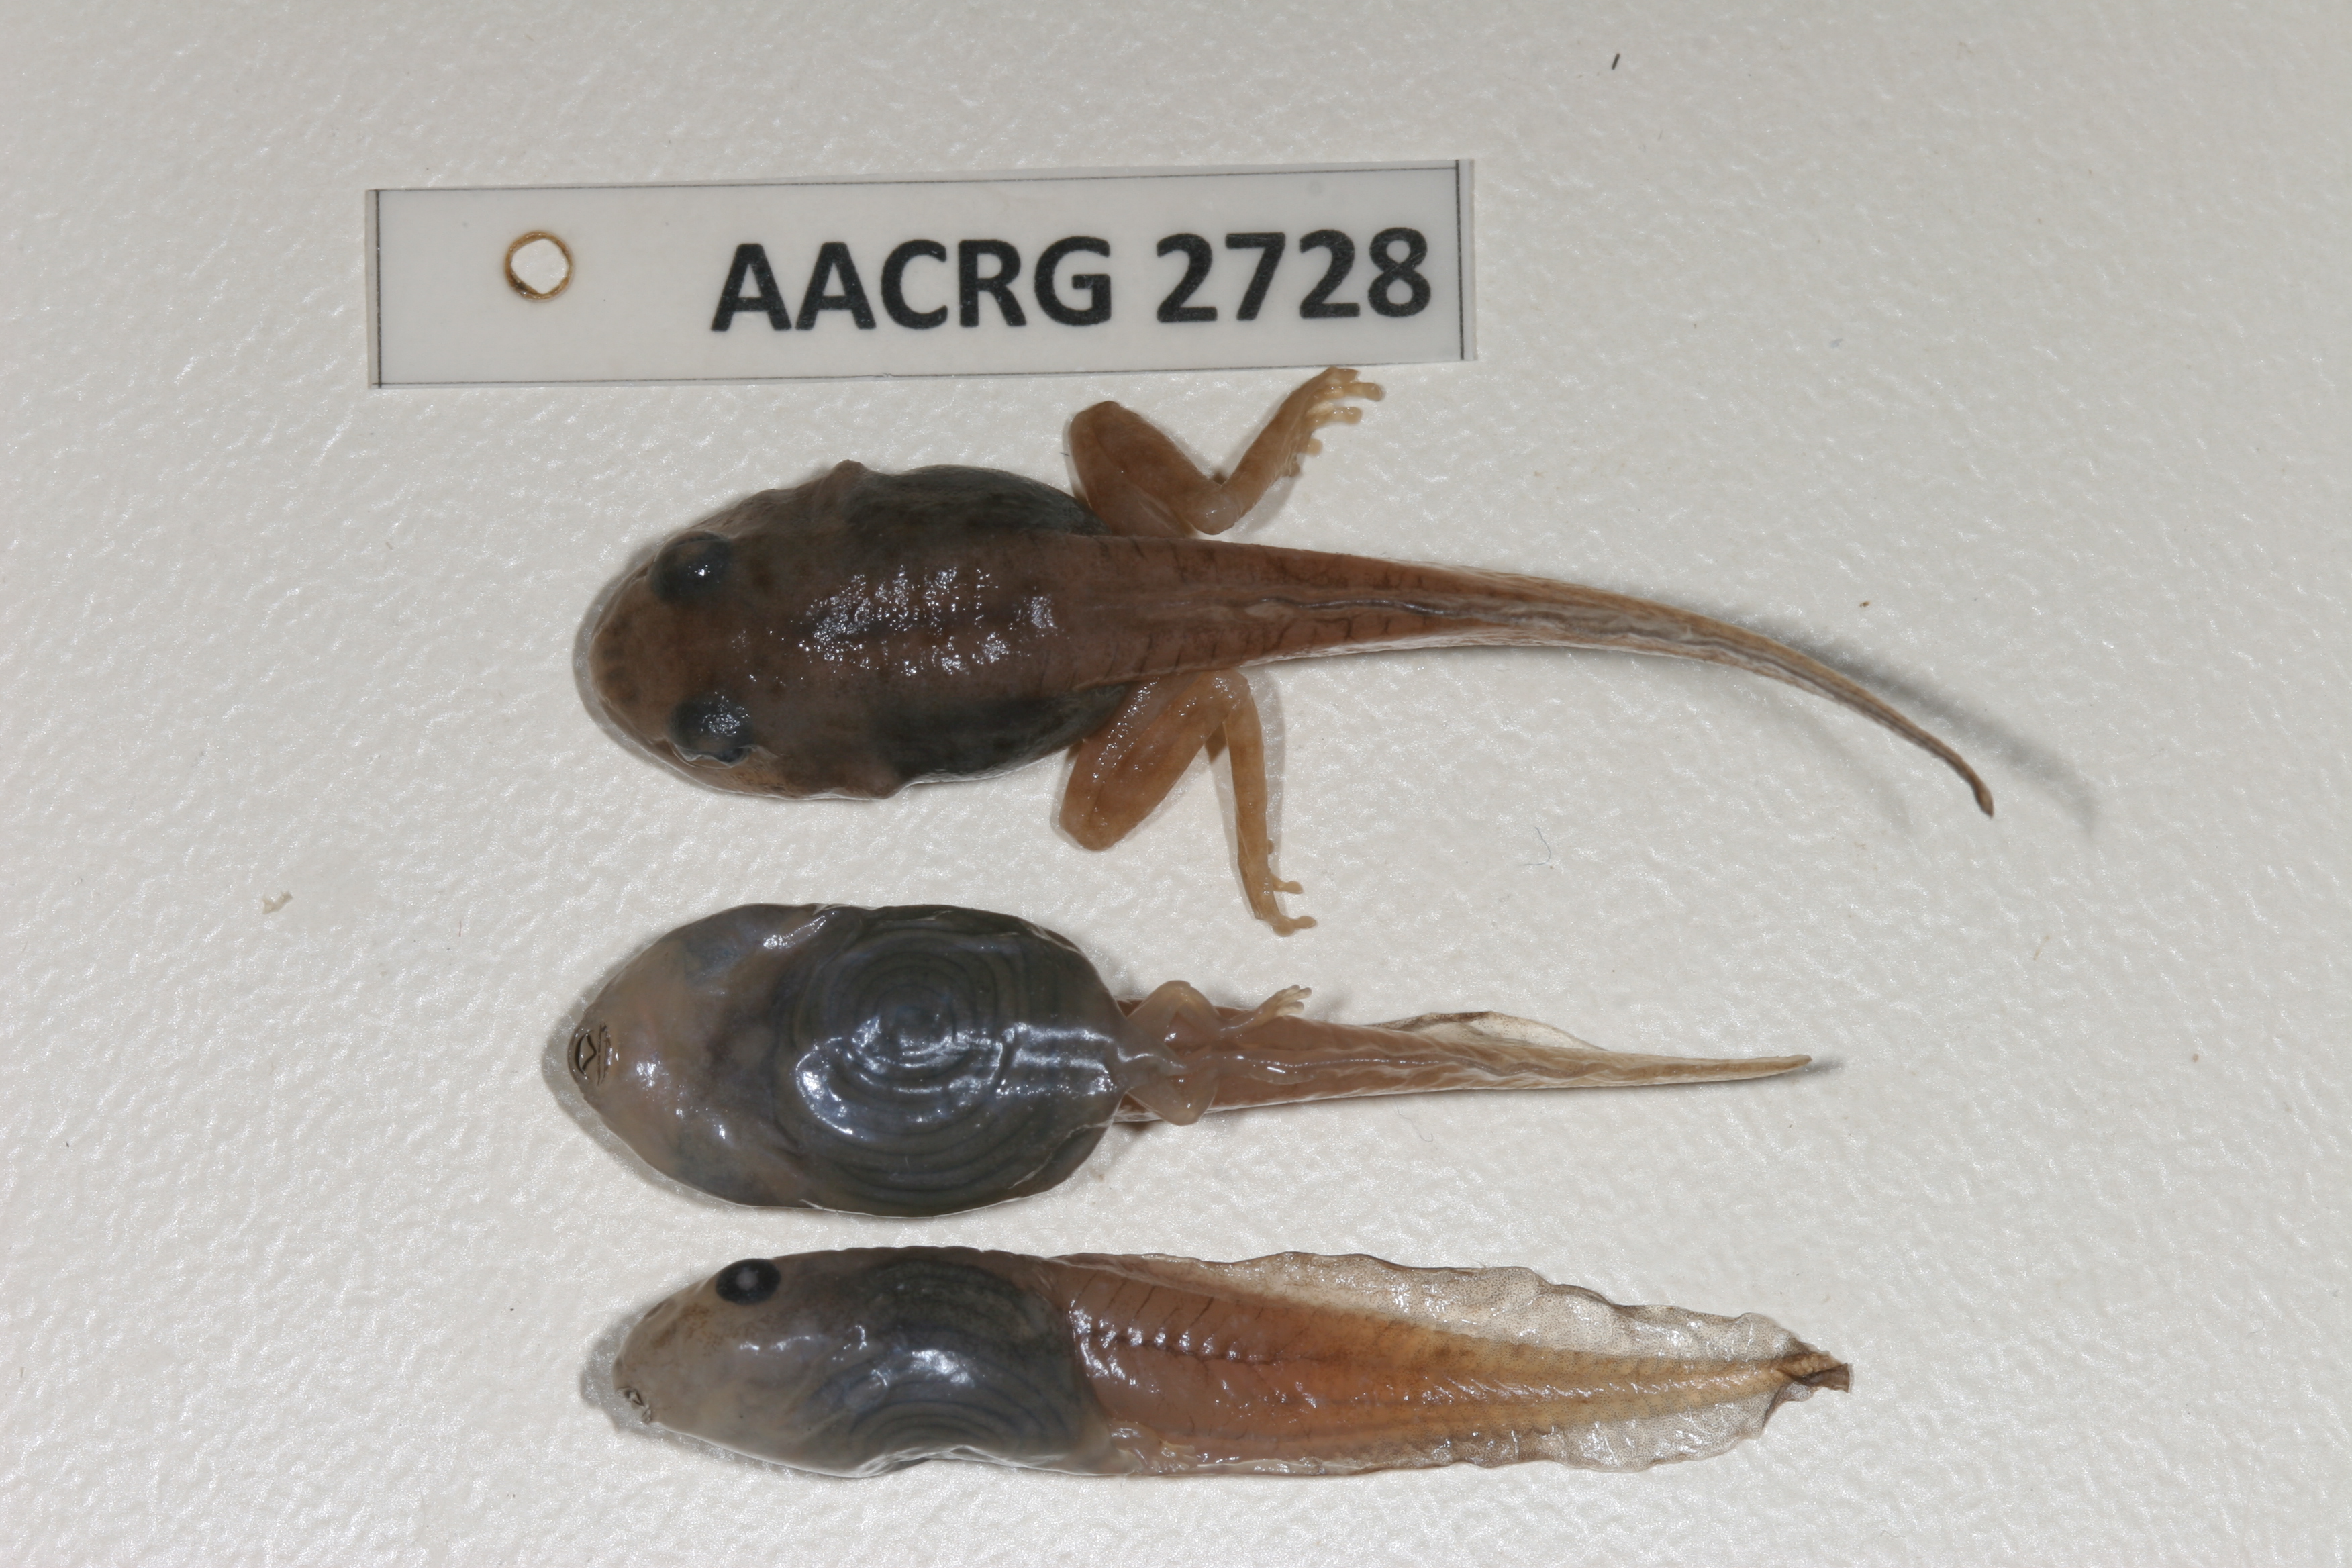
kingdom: Animalia
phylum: Chordata
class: Amphibia
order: Anura
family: Rhacophoridae
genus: Chiromantis
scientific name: Chiromantis xerampelina
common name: African gray treefrog
